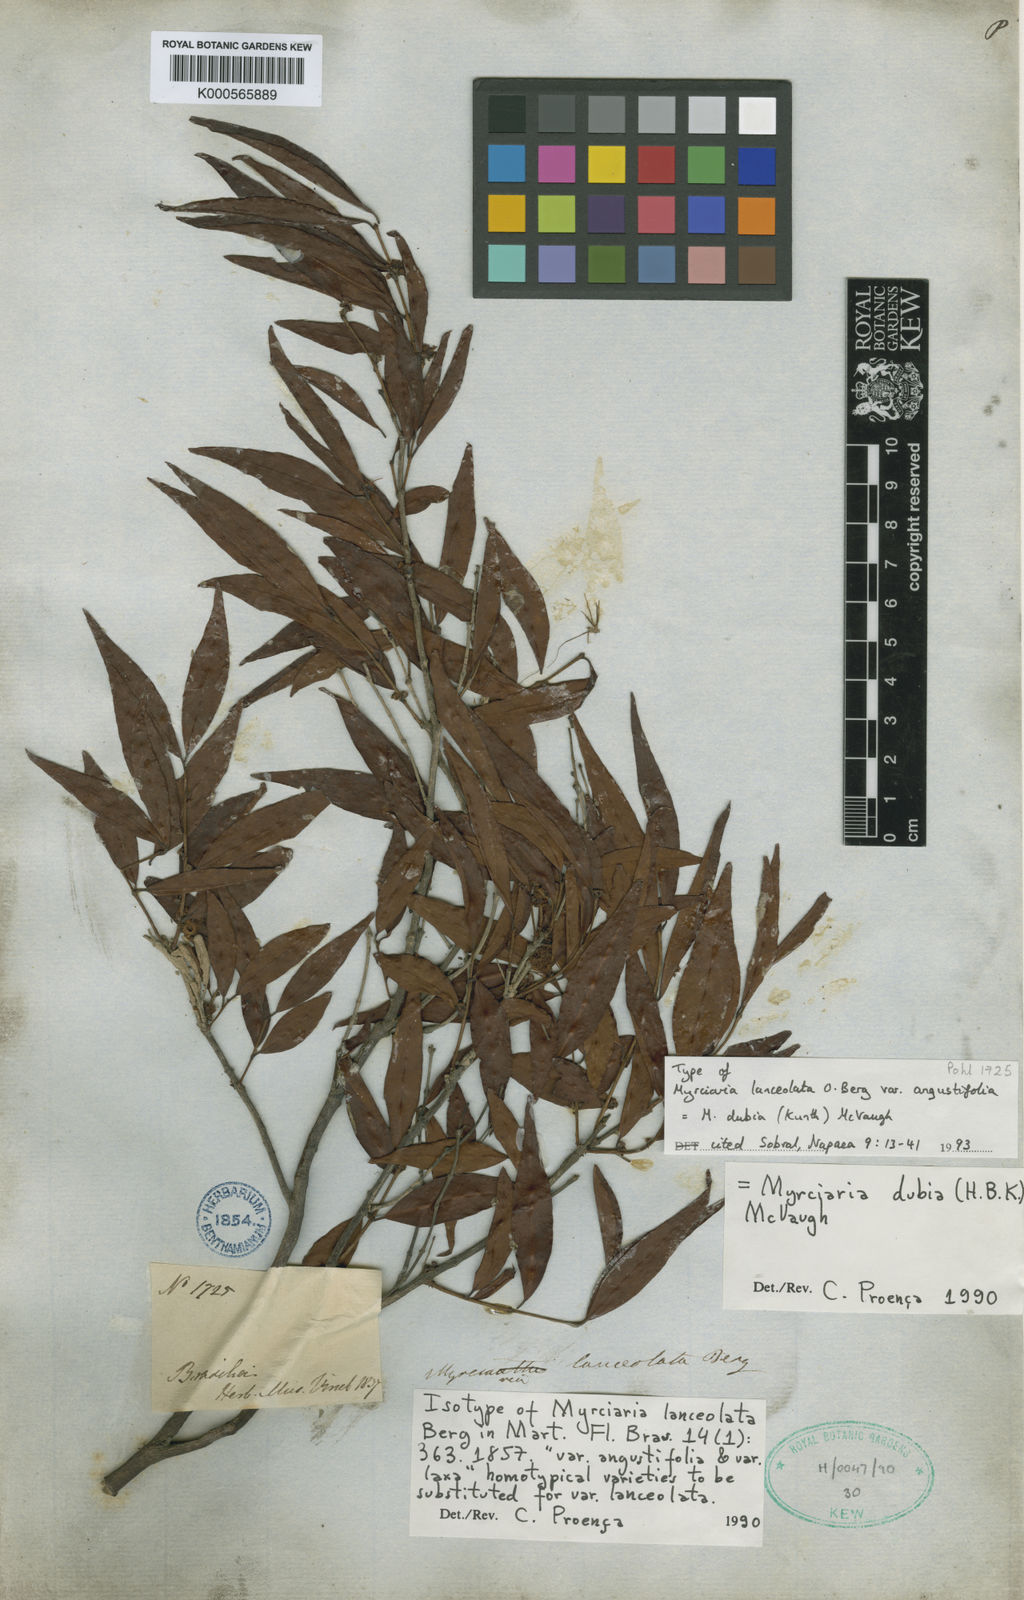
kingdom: Plantae
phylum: Tracheophyta
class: Magnoliopsida
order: Myrtales
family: Myrtaceae
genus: Myrciaria
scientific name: Myrciaria dubia
